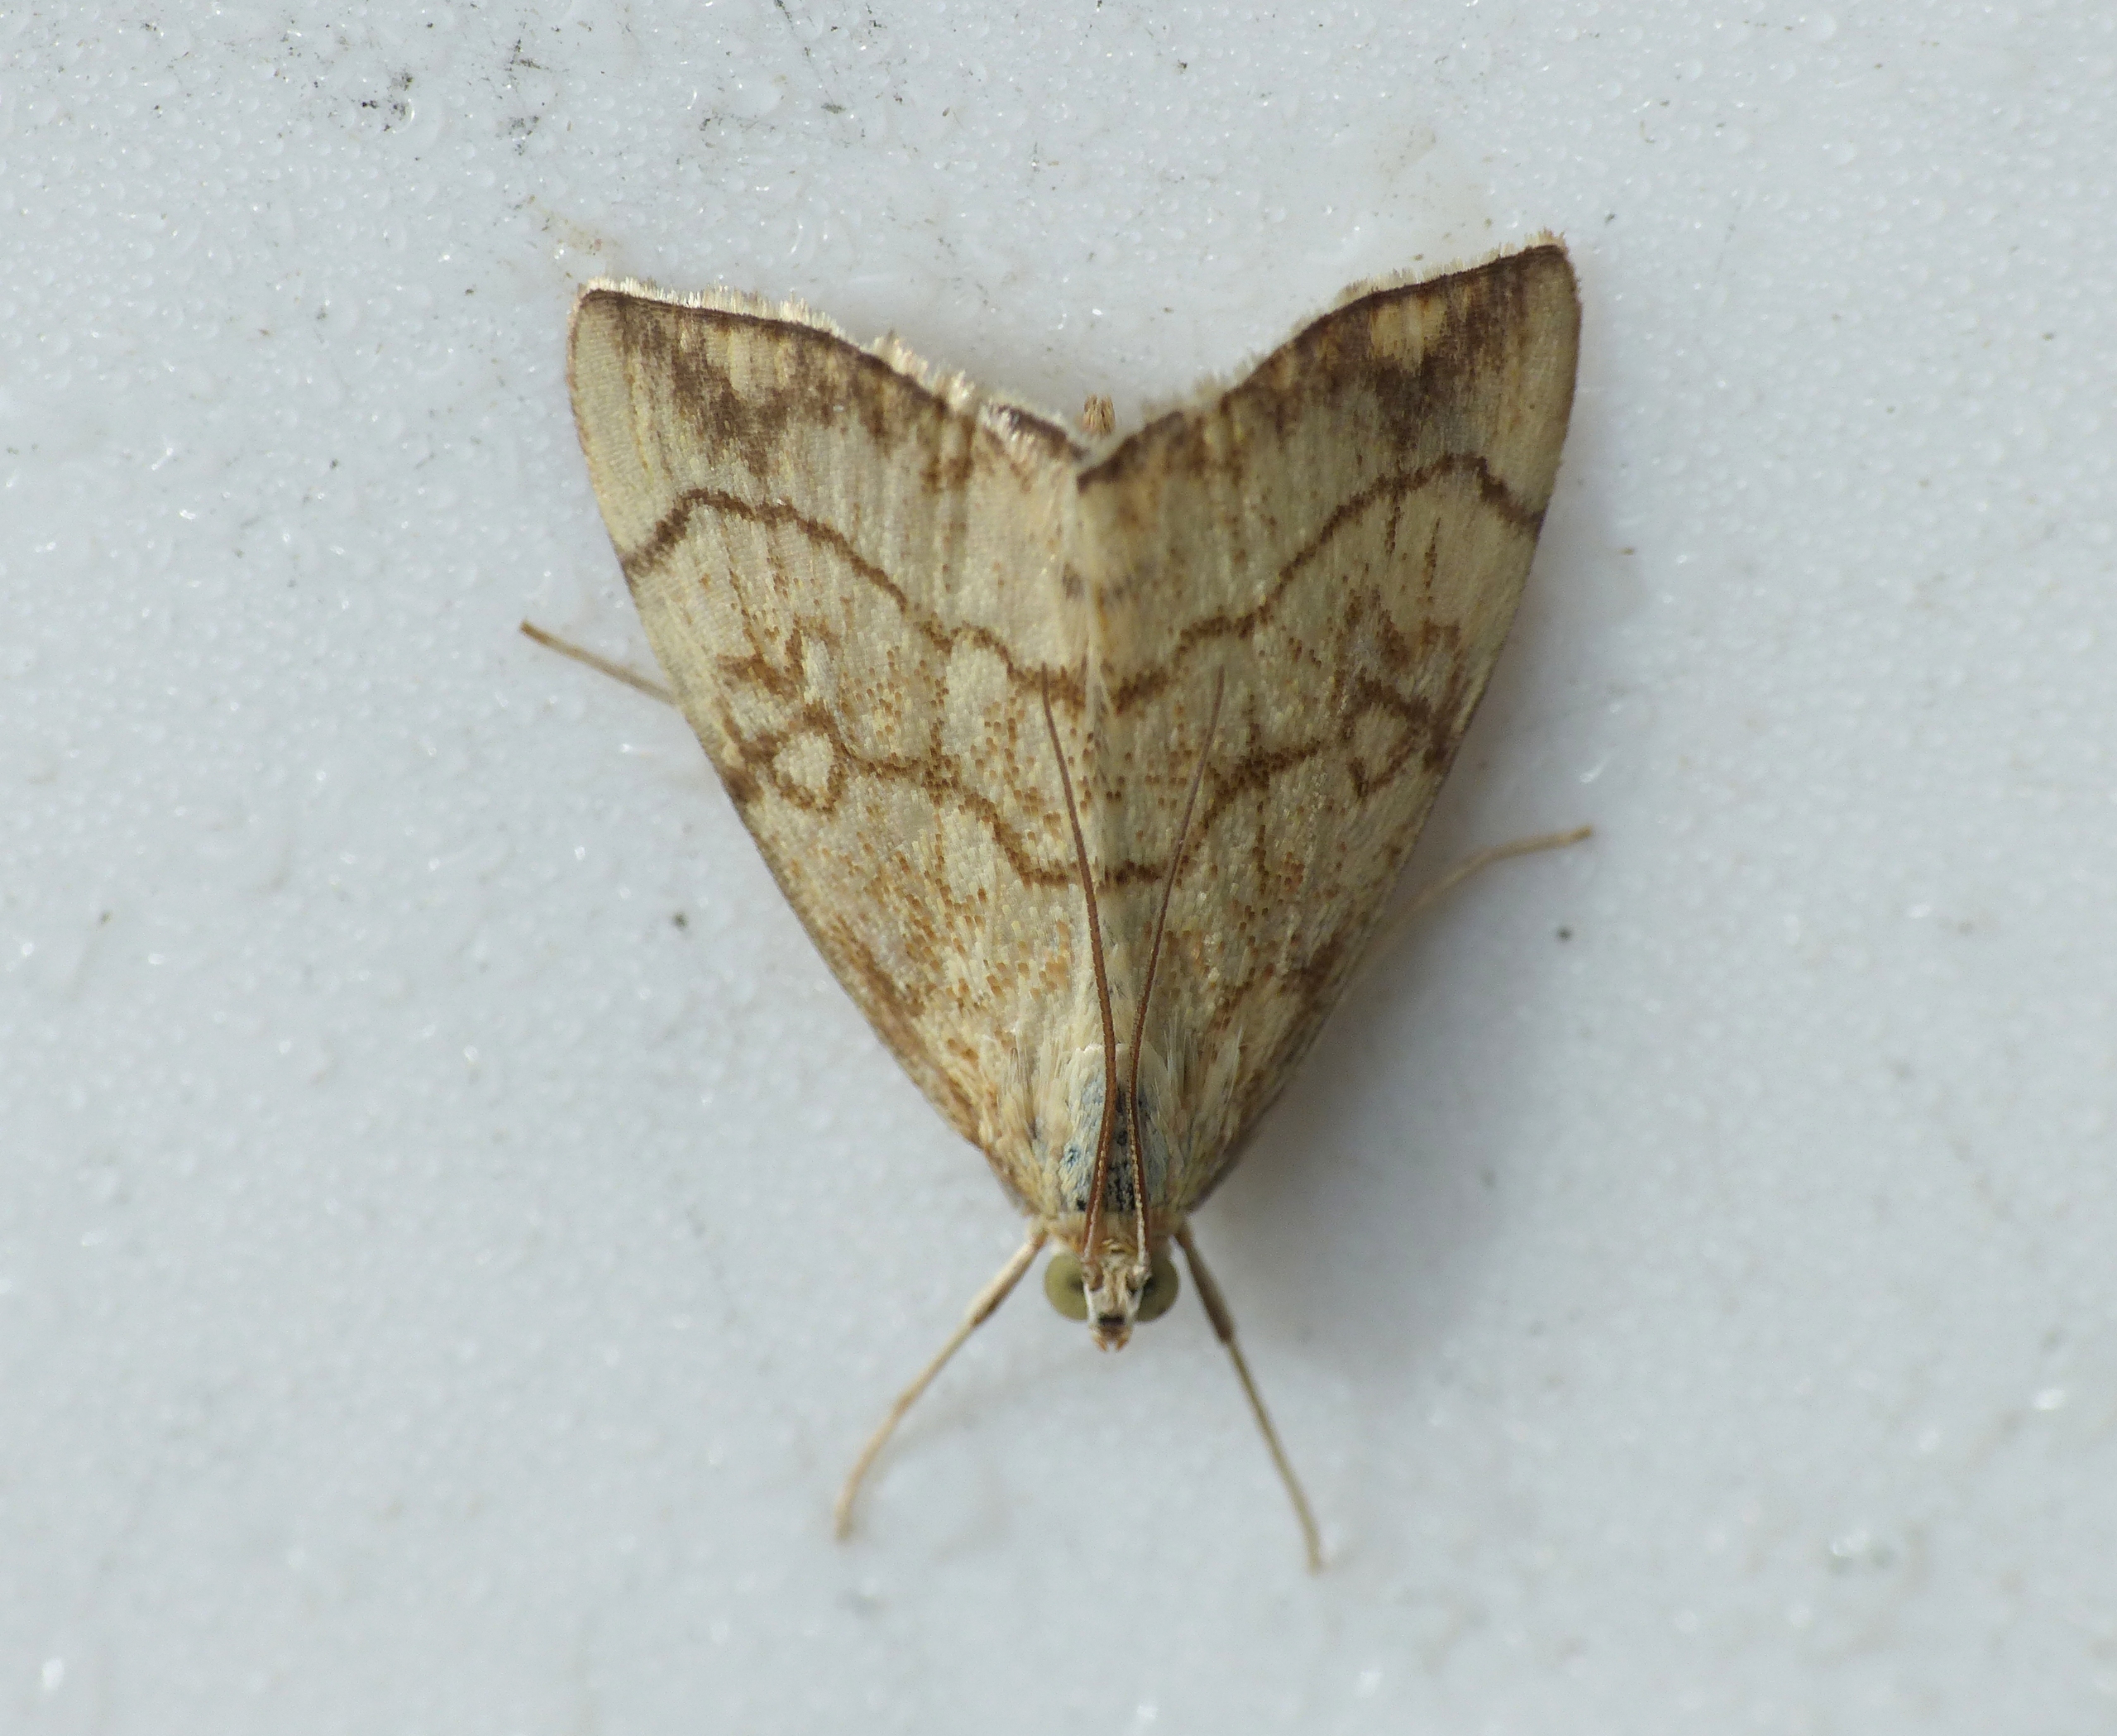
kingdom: Animalia
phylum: Arthropoda
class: Insecta
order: Lepidoptera
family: Crambidae
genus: Evergestis
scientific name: Evergestis pallidata
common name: Vinterkarsehalvmøl
